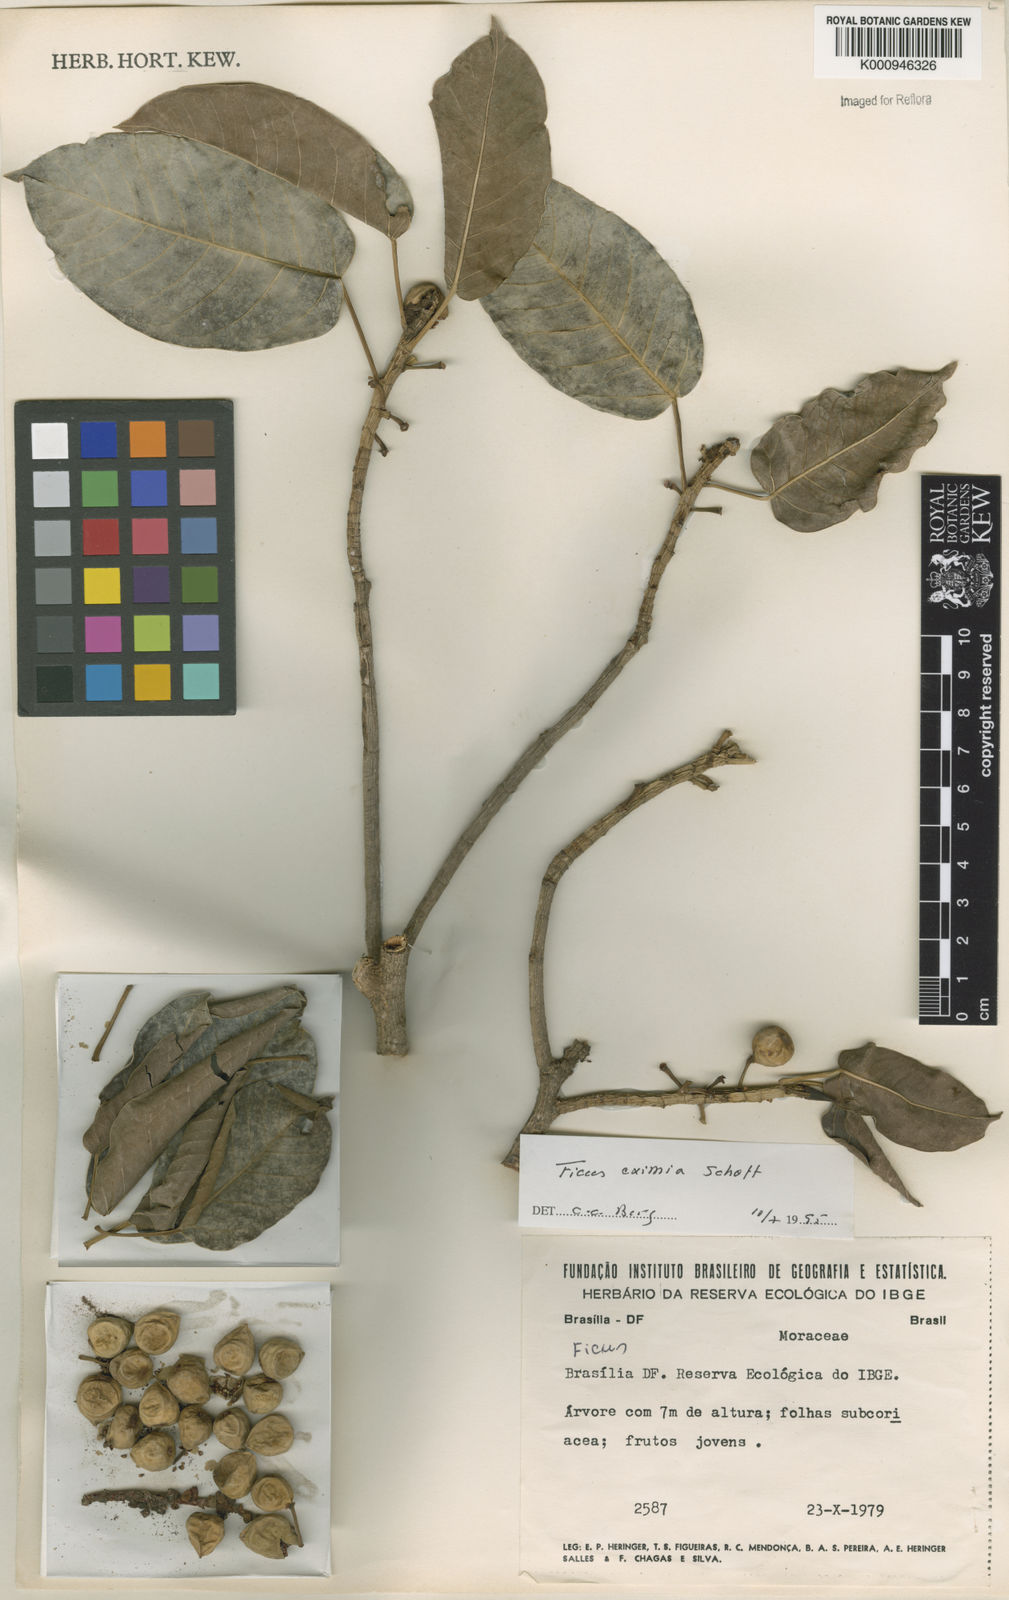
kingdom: Plantae
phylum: Tracheophyta
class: Magnoliopsida
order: Rosales
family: Moraceae
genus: Ficus
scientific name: Ficus eximia
